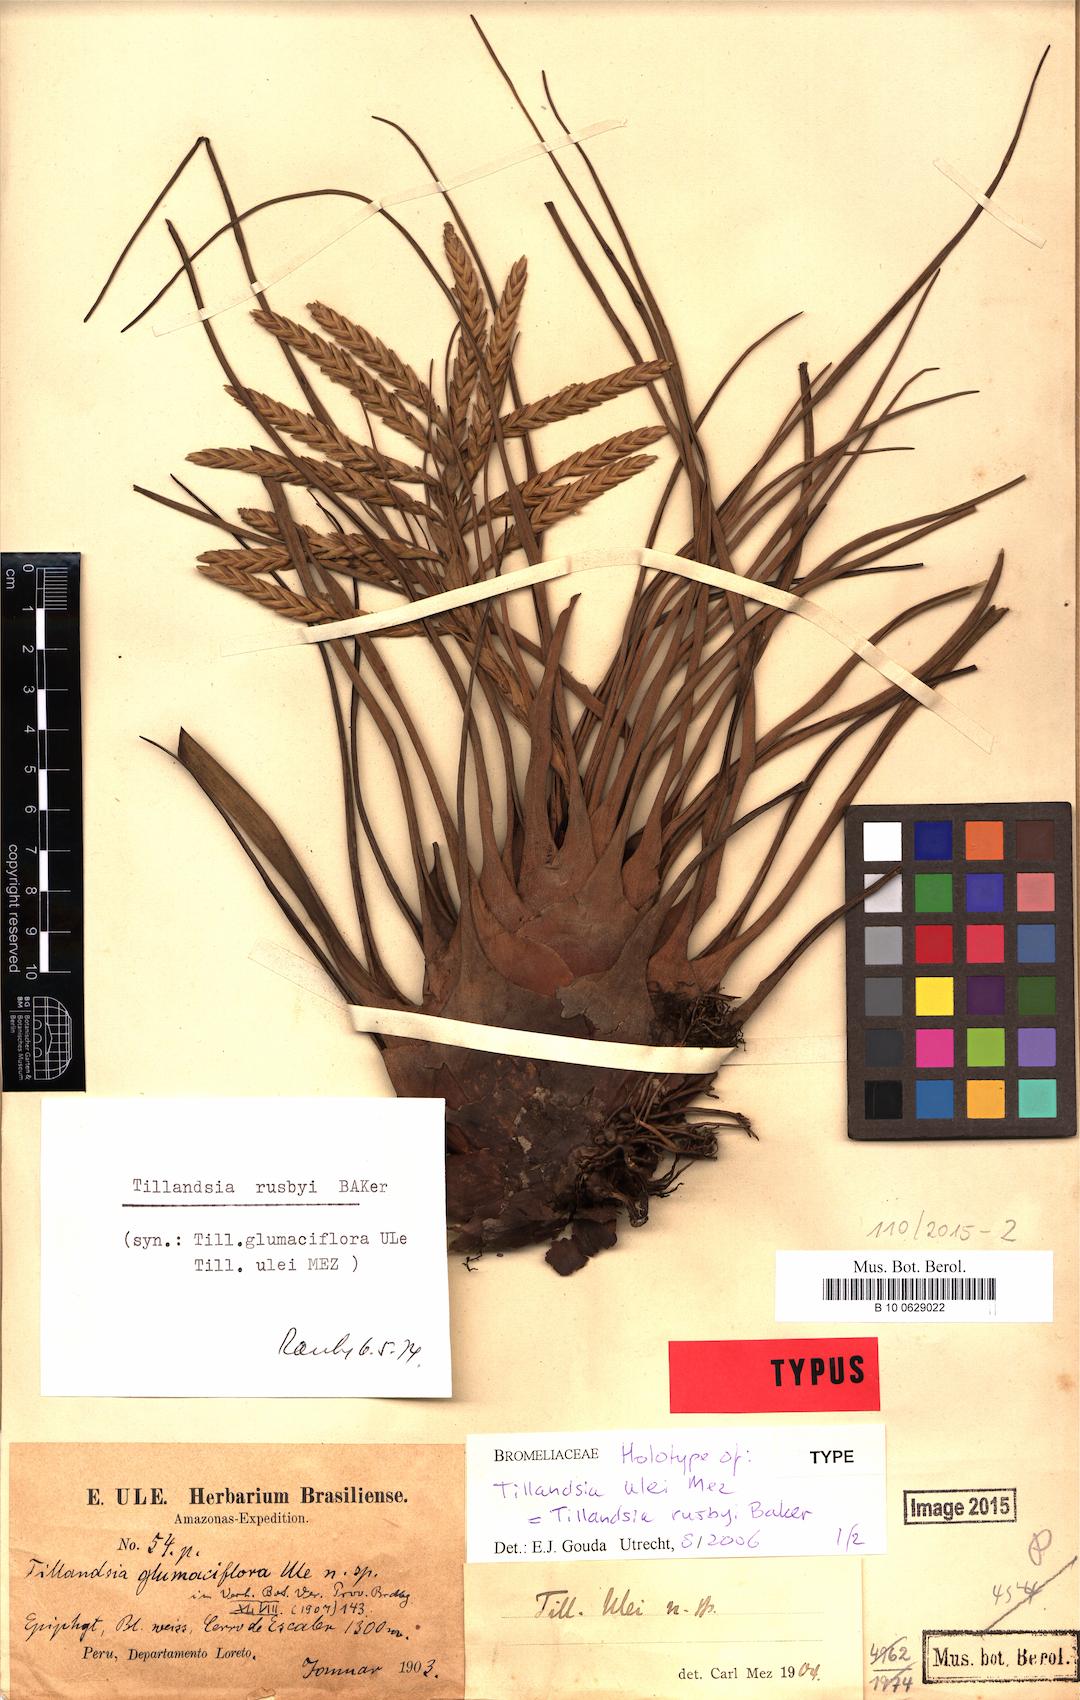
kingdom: Plantae
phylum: Tracheophyta
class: Liliopsida
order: Poales
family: Bromeliaceae
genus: Tillandsia
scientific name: Tillandsia rusbyi
